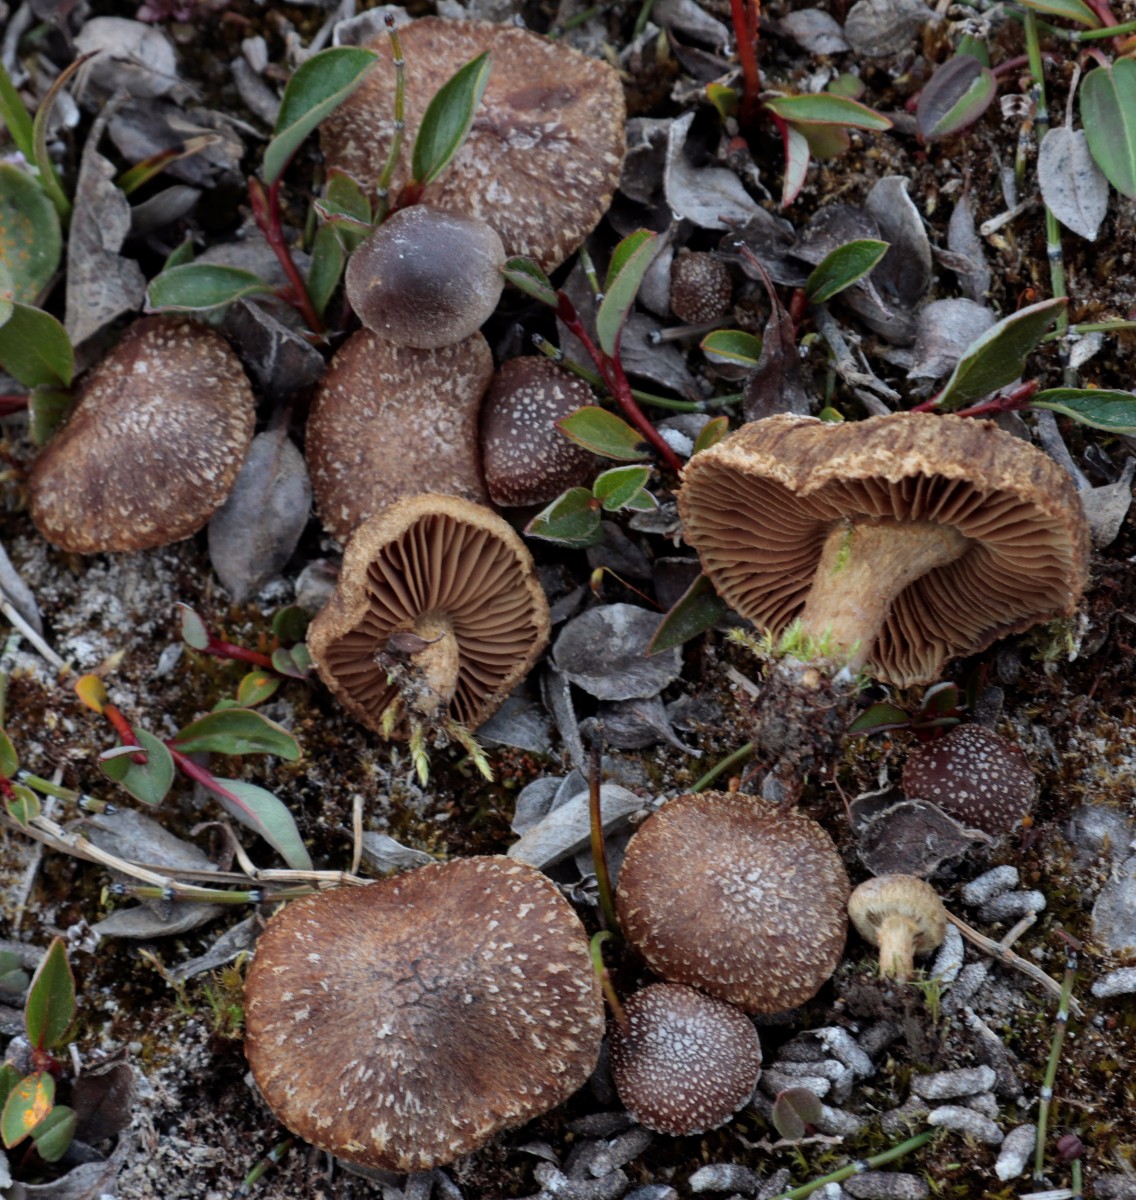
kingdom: Fungi
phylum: Basidiomycota
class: Agaricomycetes
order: Agaricales
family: Inocybaceae
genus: Inocybe
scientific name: Inocybe
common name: trævlhat
